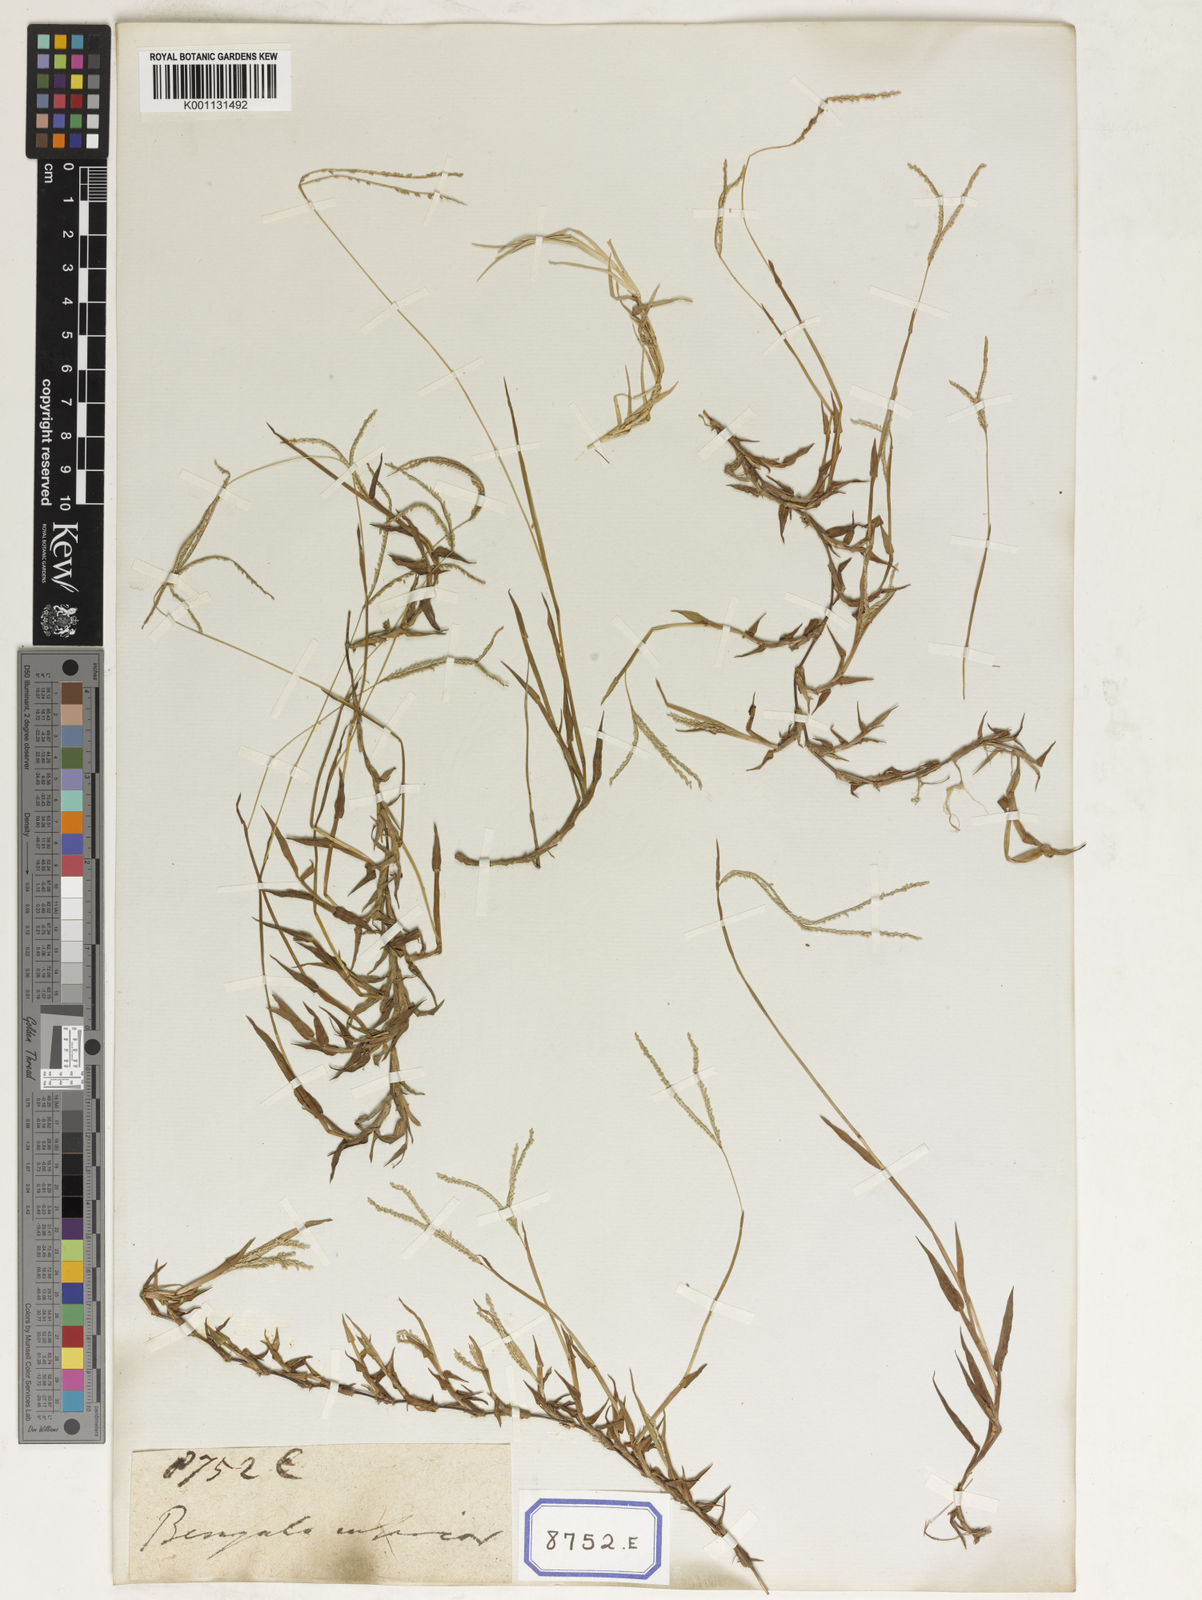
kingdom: Plantae
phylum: Tracheophyta
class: Liliopsida
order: Poales
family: Poaceae
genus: Paspalum
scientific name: Paspalum
